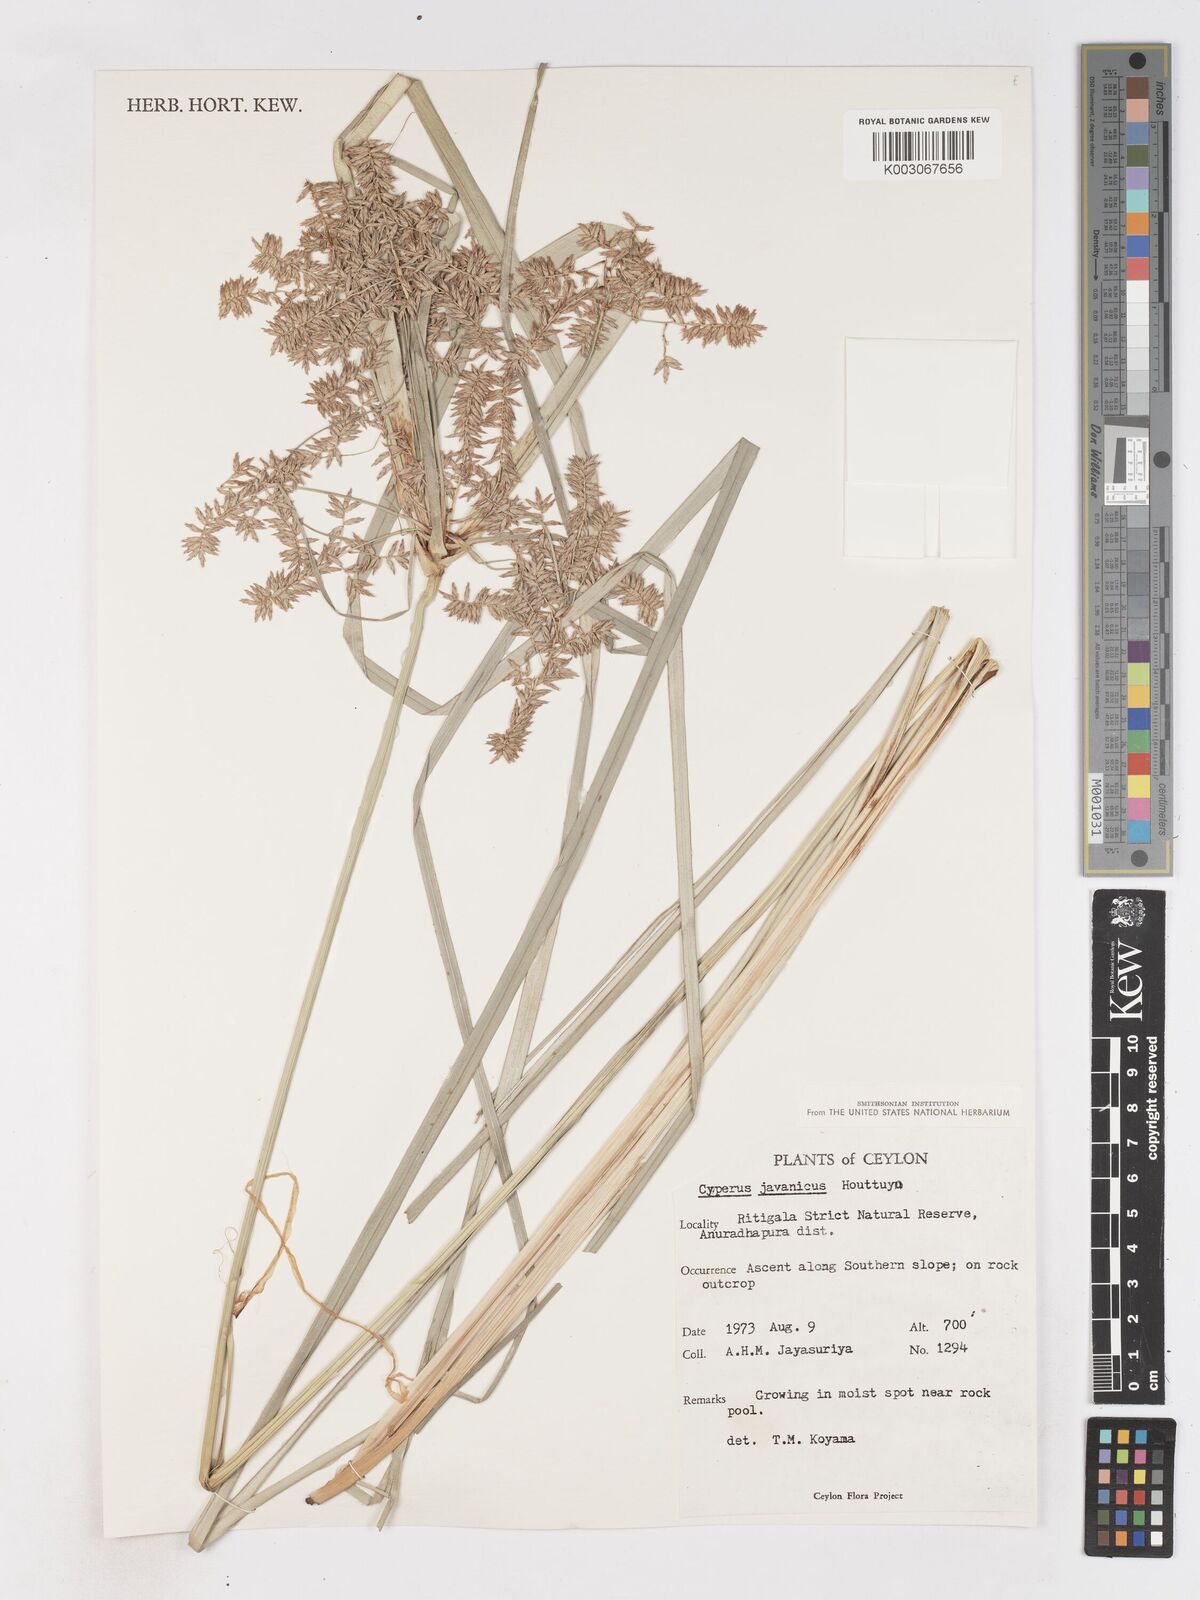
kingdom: Plantae
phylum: Tracheophyta
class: Liliopsida
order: Poales
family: Cyperaceae
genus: Cyperus
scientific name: Cyperus javanicus
